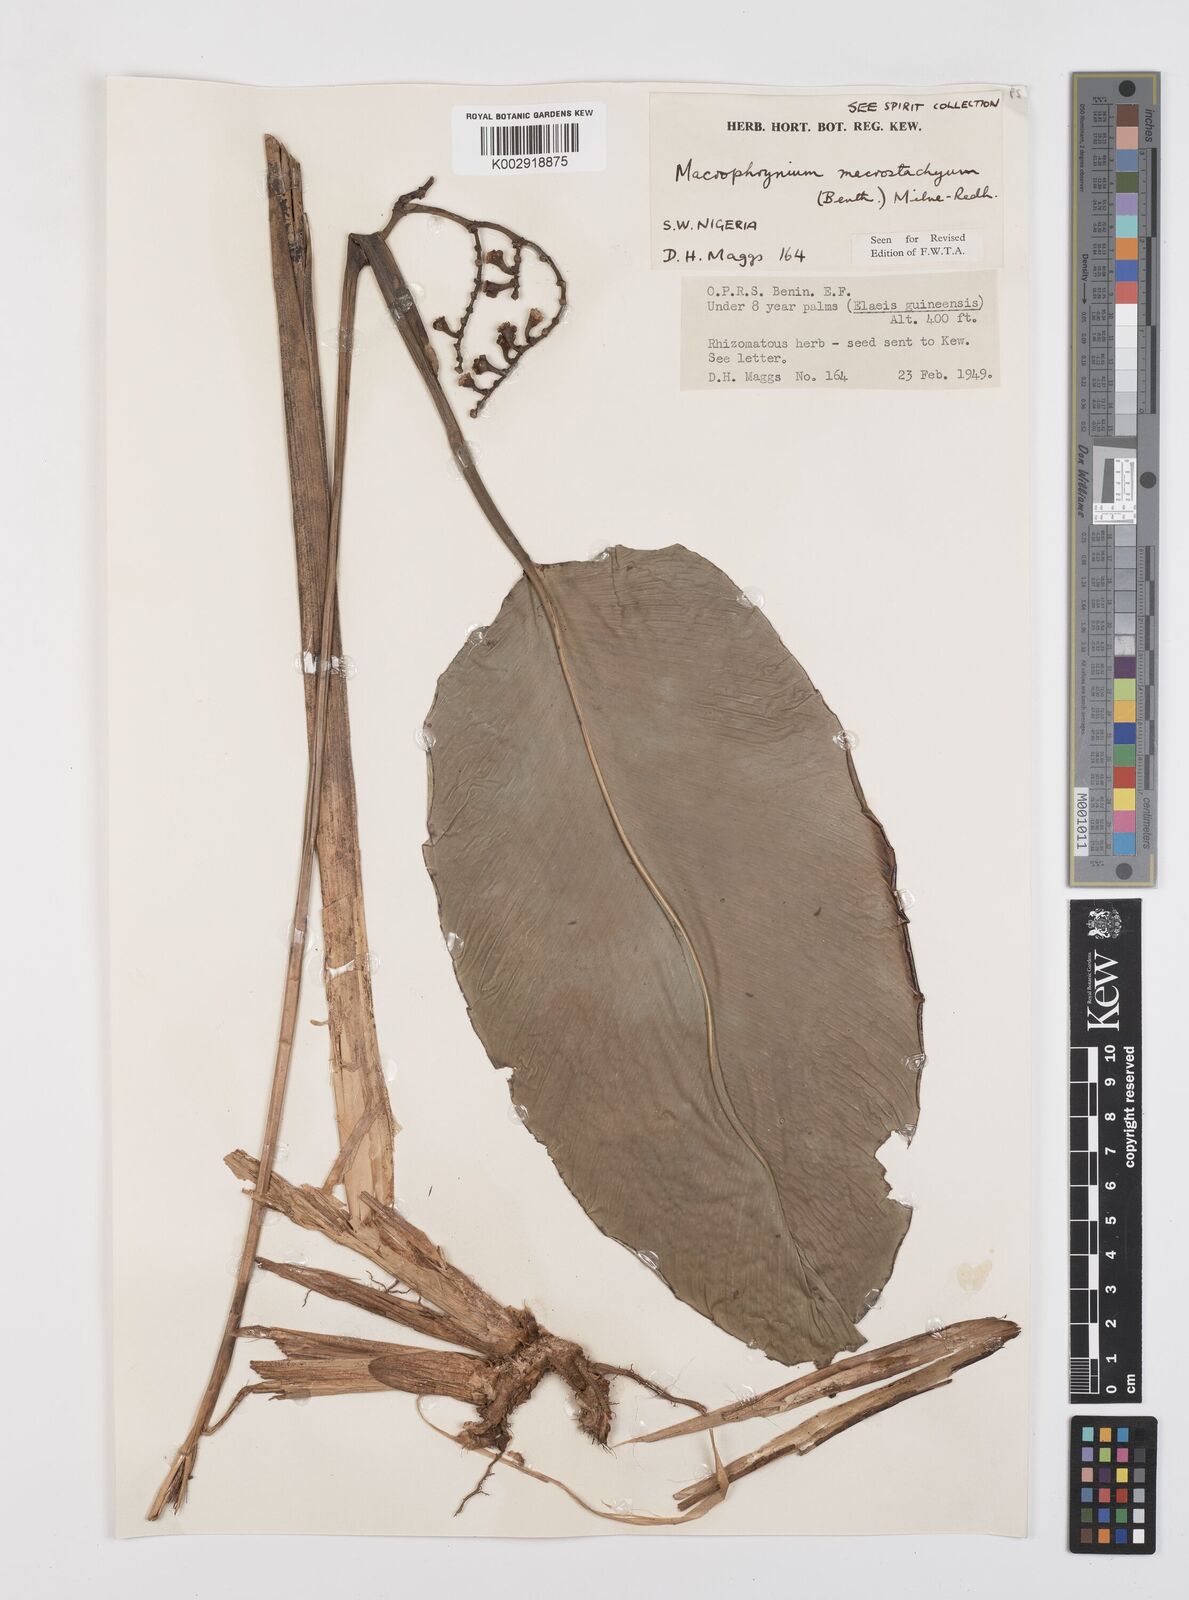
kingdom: Plantae
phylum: Tracheophyta
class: Liliopsida
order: Zingiberales
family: Marantaceae
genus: Megaphrynium
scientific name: Megaphrynium macrostachyum
